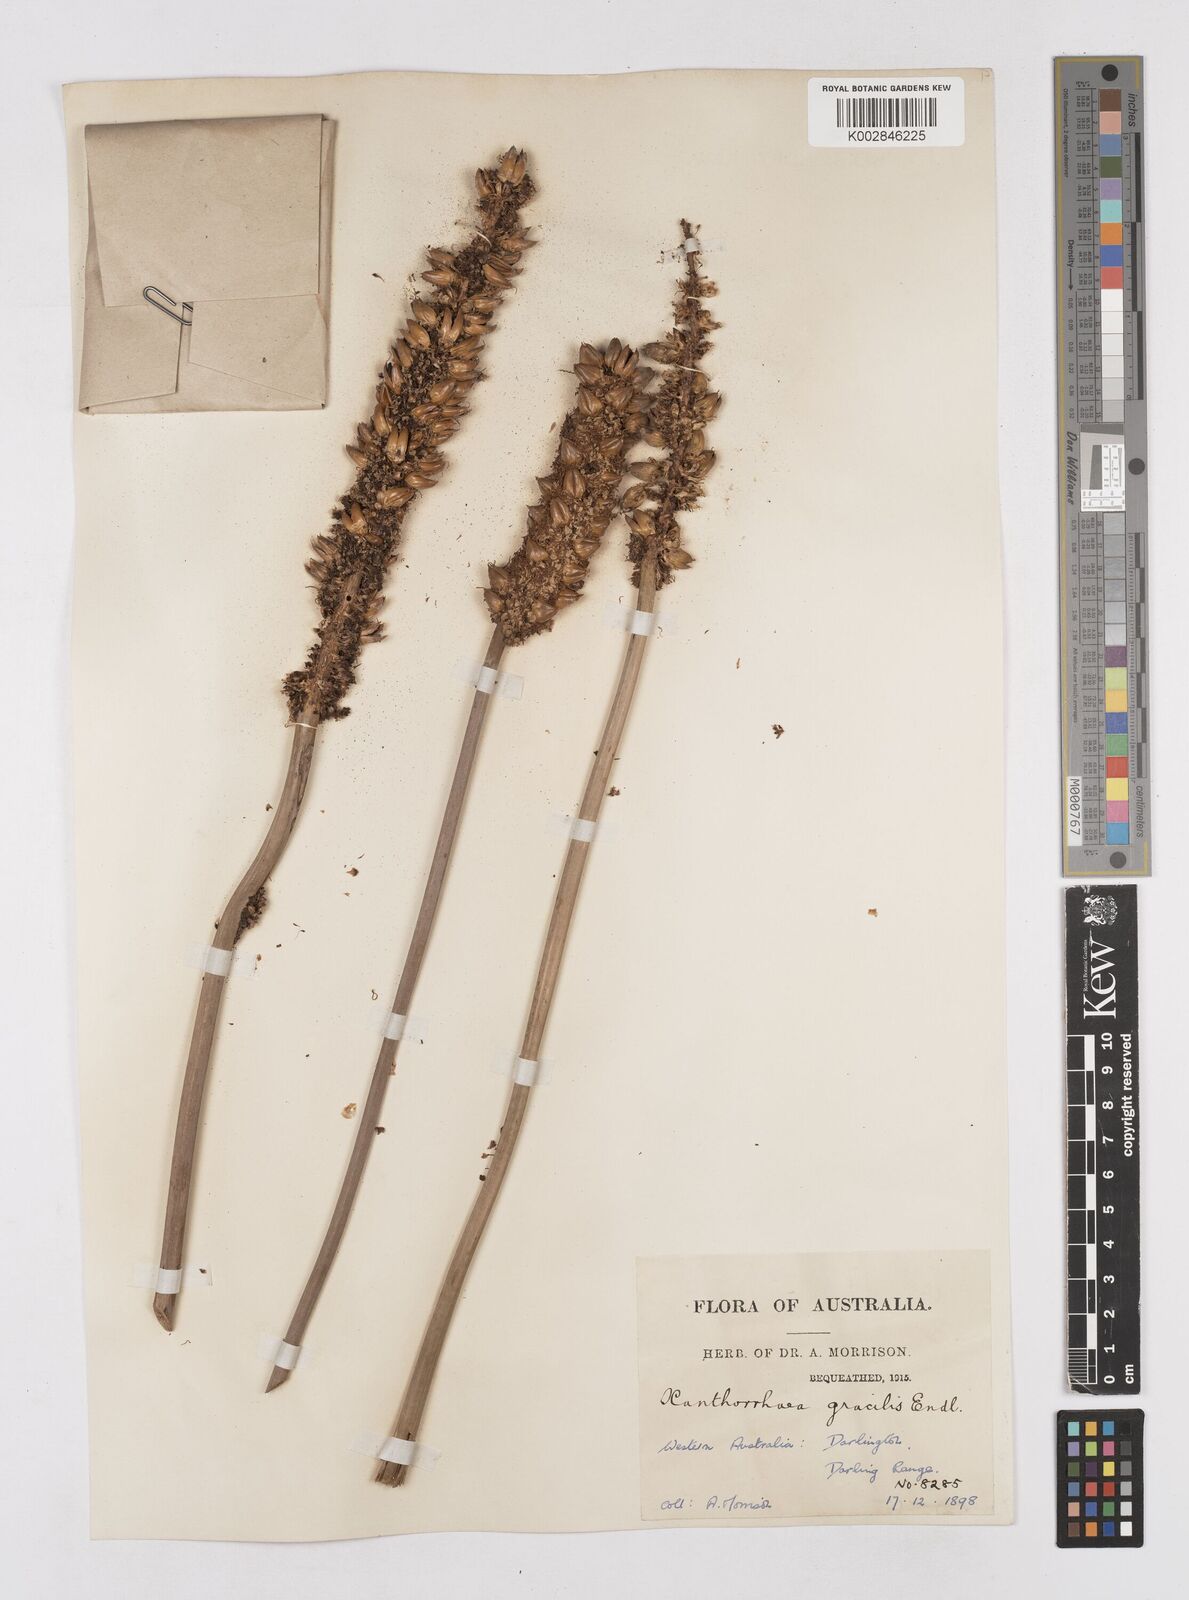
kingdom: Plantae
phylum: Tracheophyta
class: Liliopsida
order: Asparagales
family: Asphodelaceae
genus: Xanthorrhoea
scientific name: Xanthorrhoea gracilis
